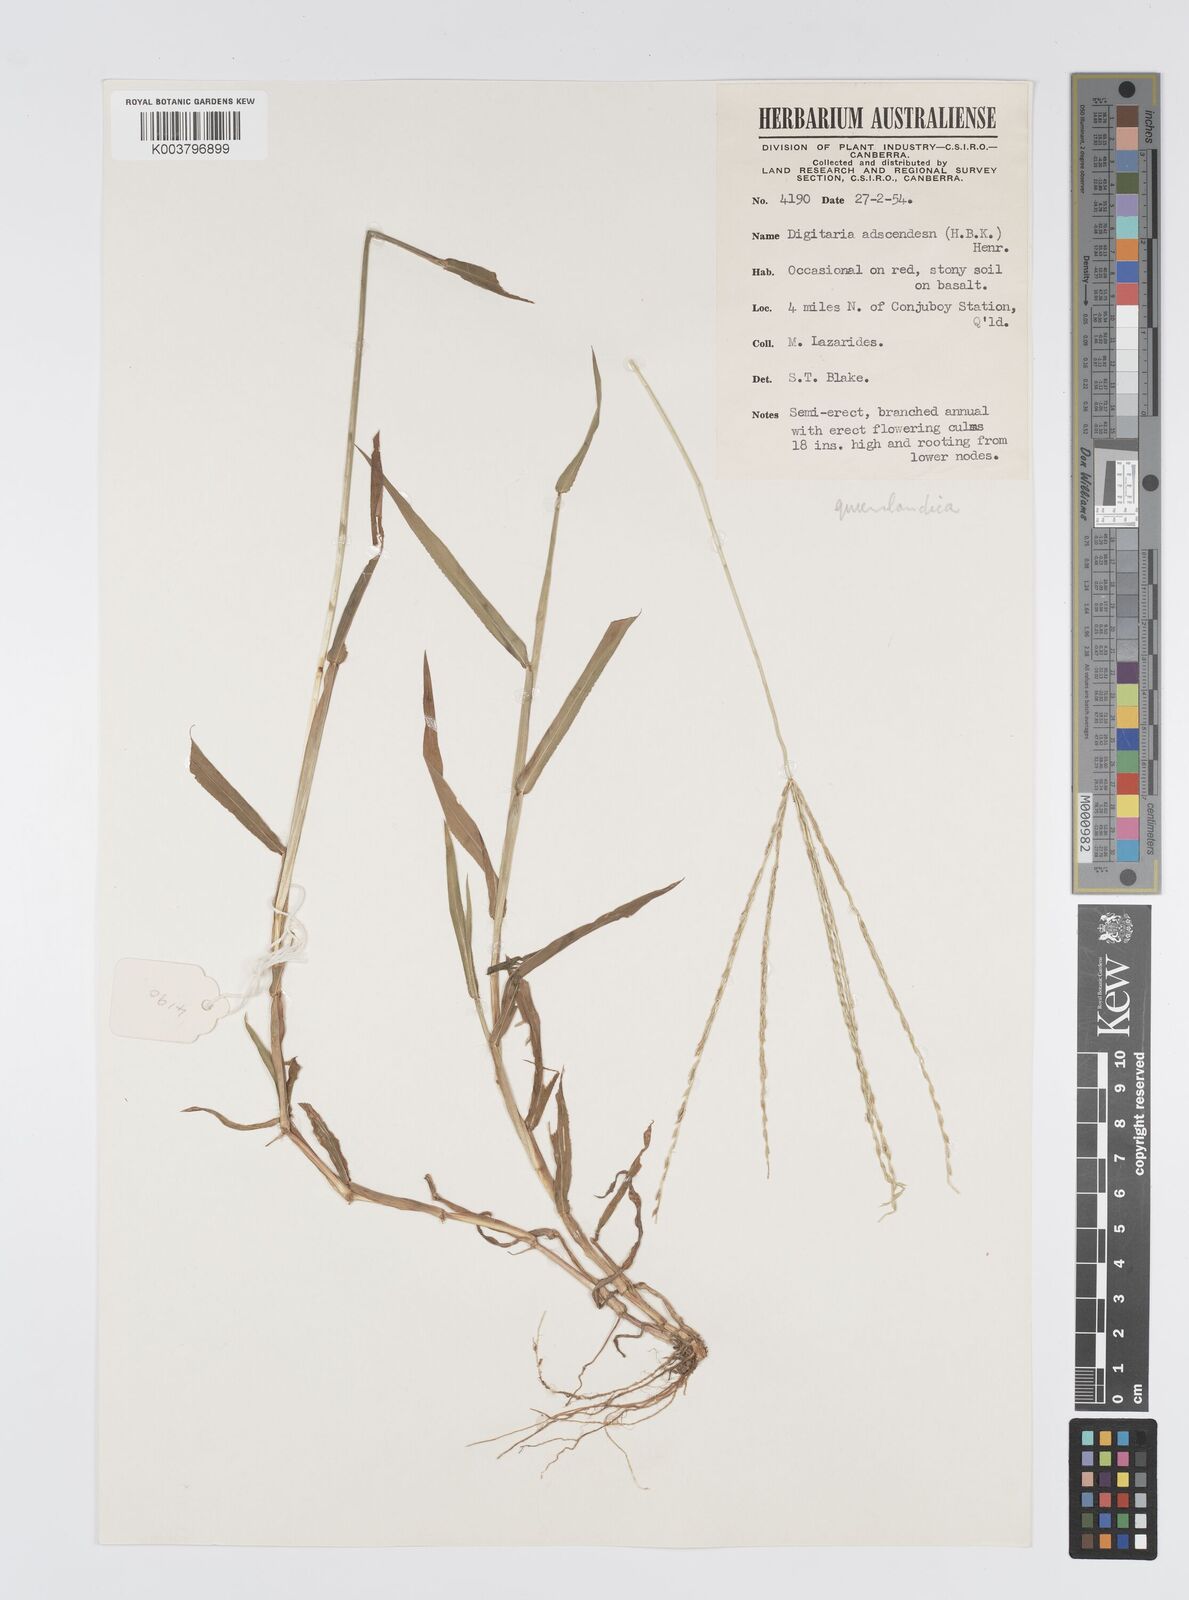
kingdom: Plantae
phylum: Tracheophyta
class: Liliopsida
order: Poales
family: Poaceae
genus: Digitaria
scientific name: Digitaria bicornis
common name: Asian crabgrass
